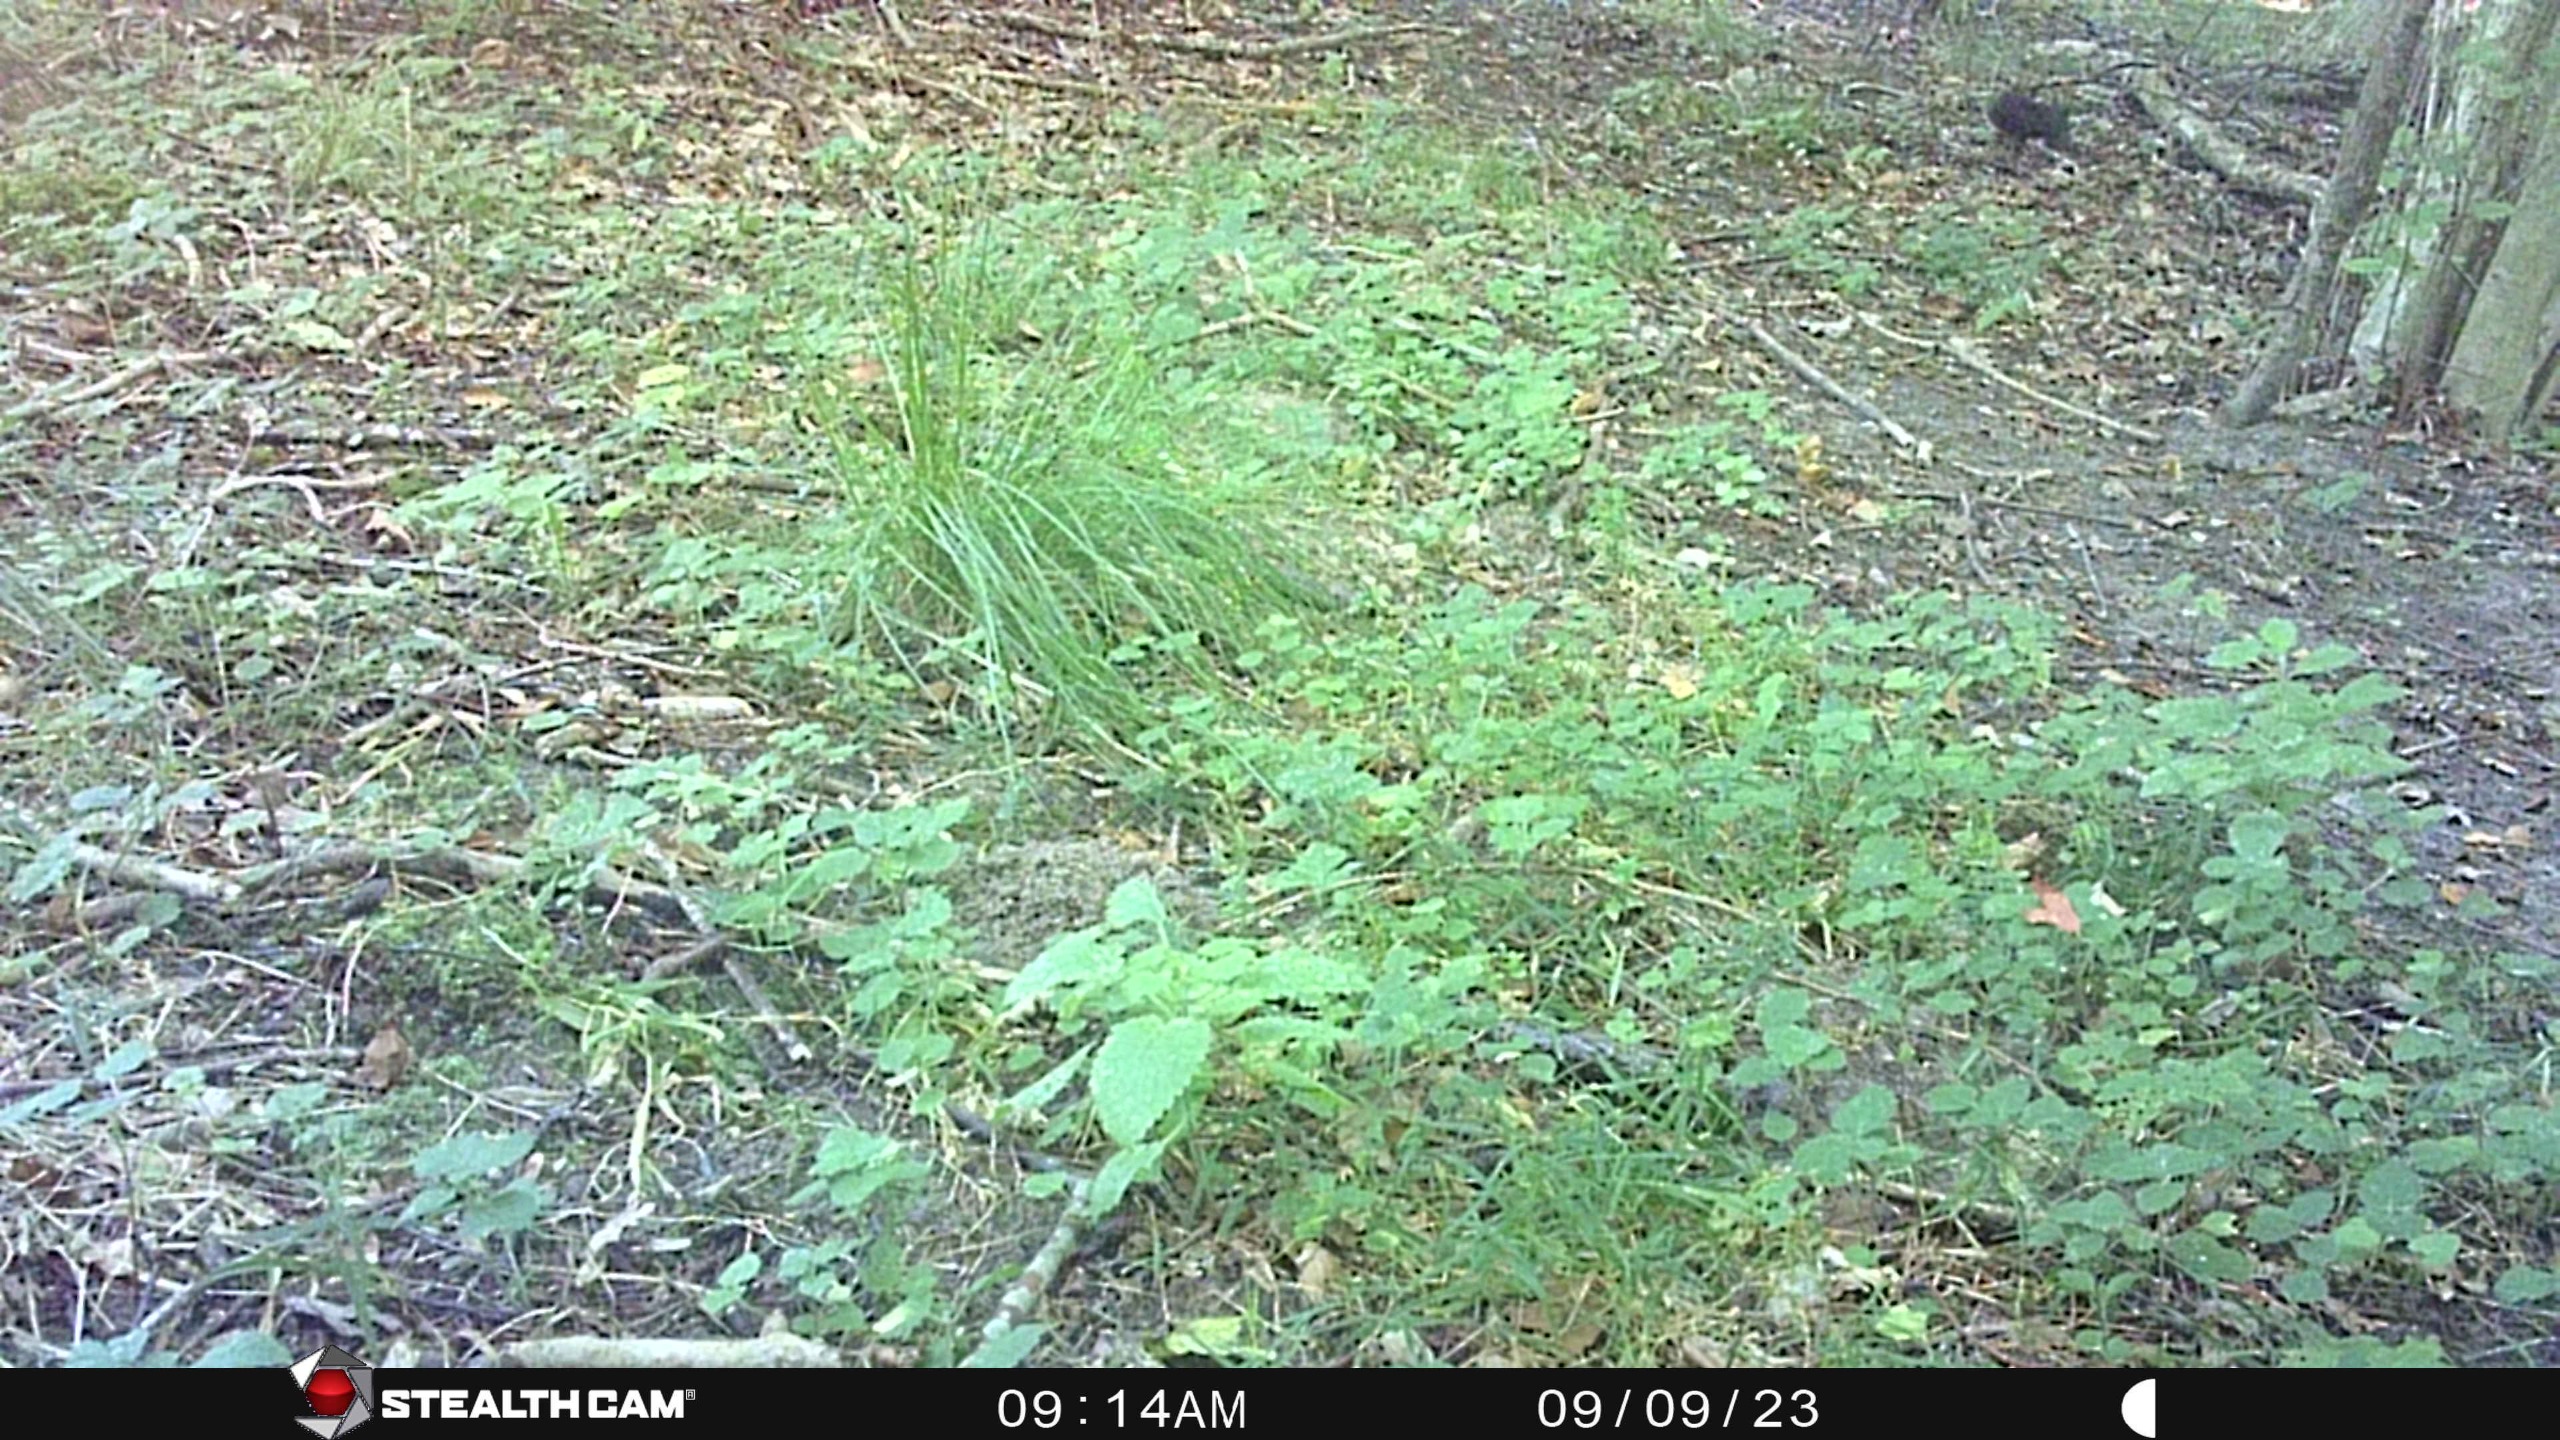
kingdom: Animalia
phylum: Chordata
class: Mammalia
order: Rodentia
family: Sciuridae
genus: Sciurus
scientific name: Sciurus vulgaris
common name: Egern
